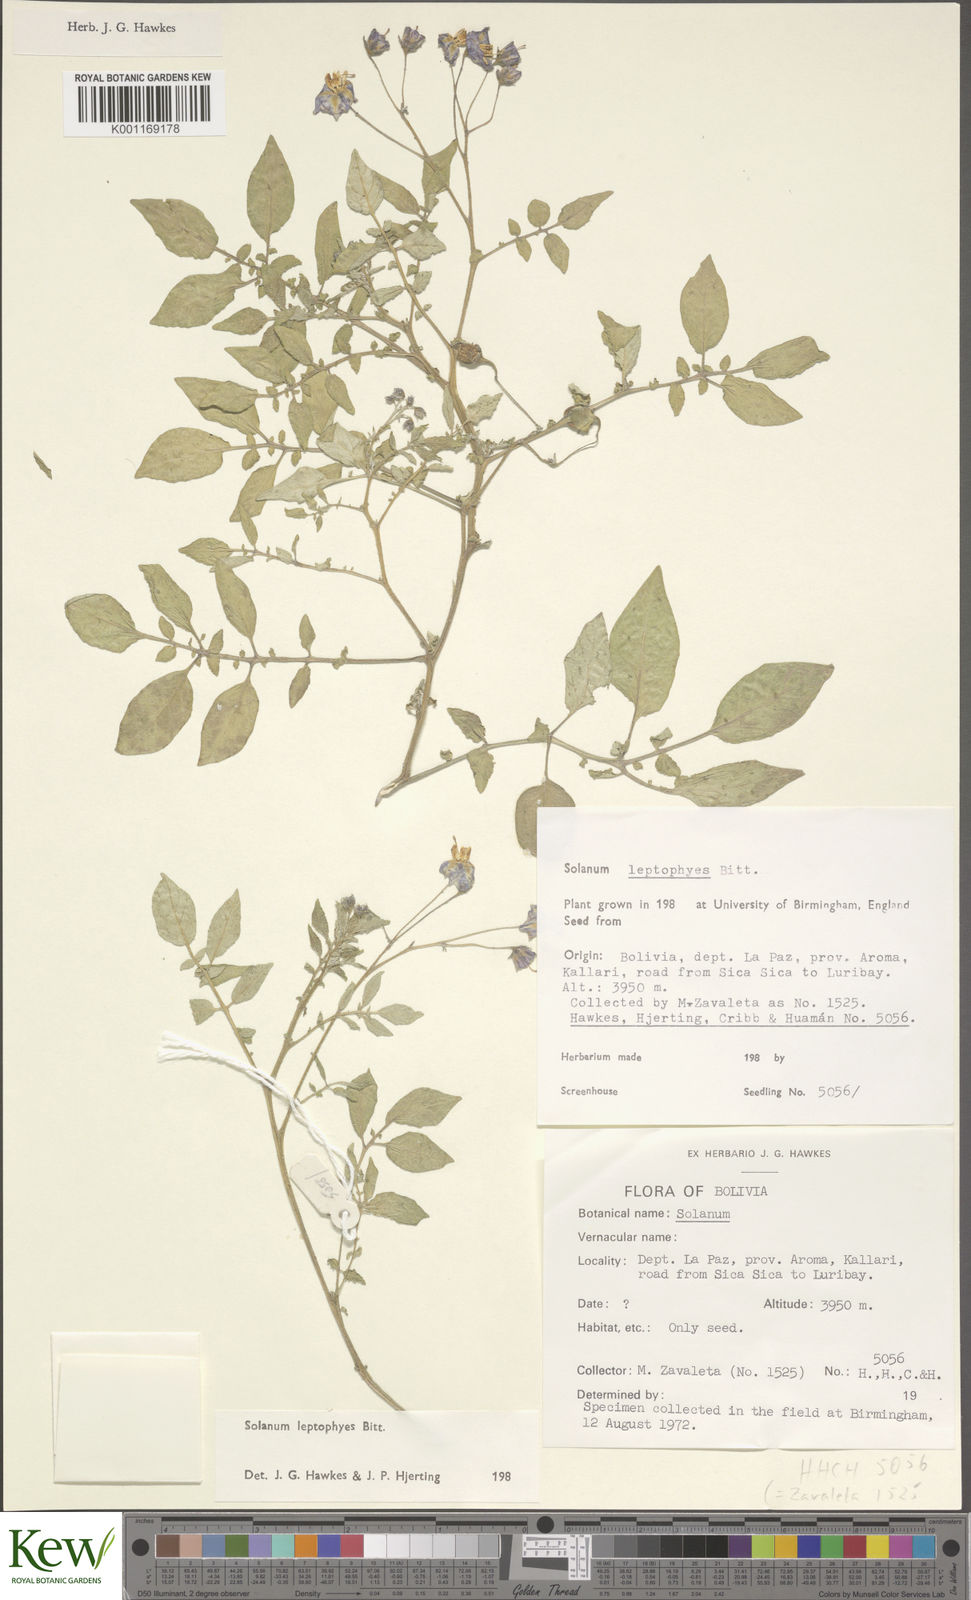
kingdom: Plantae
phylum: Tracheophyta
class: Magnoliopsida
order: Solanales
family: Solanaceae
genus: Solanum
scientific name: Solanum brevicaule
